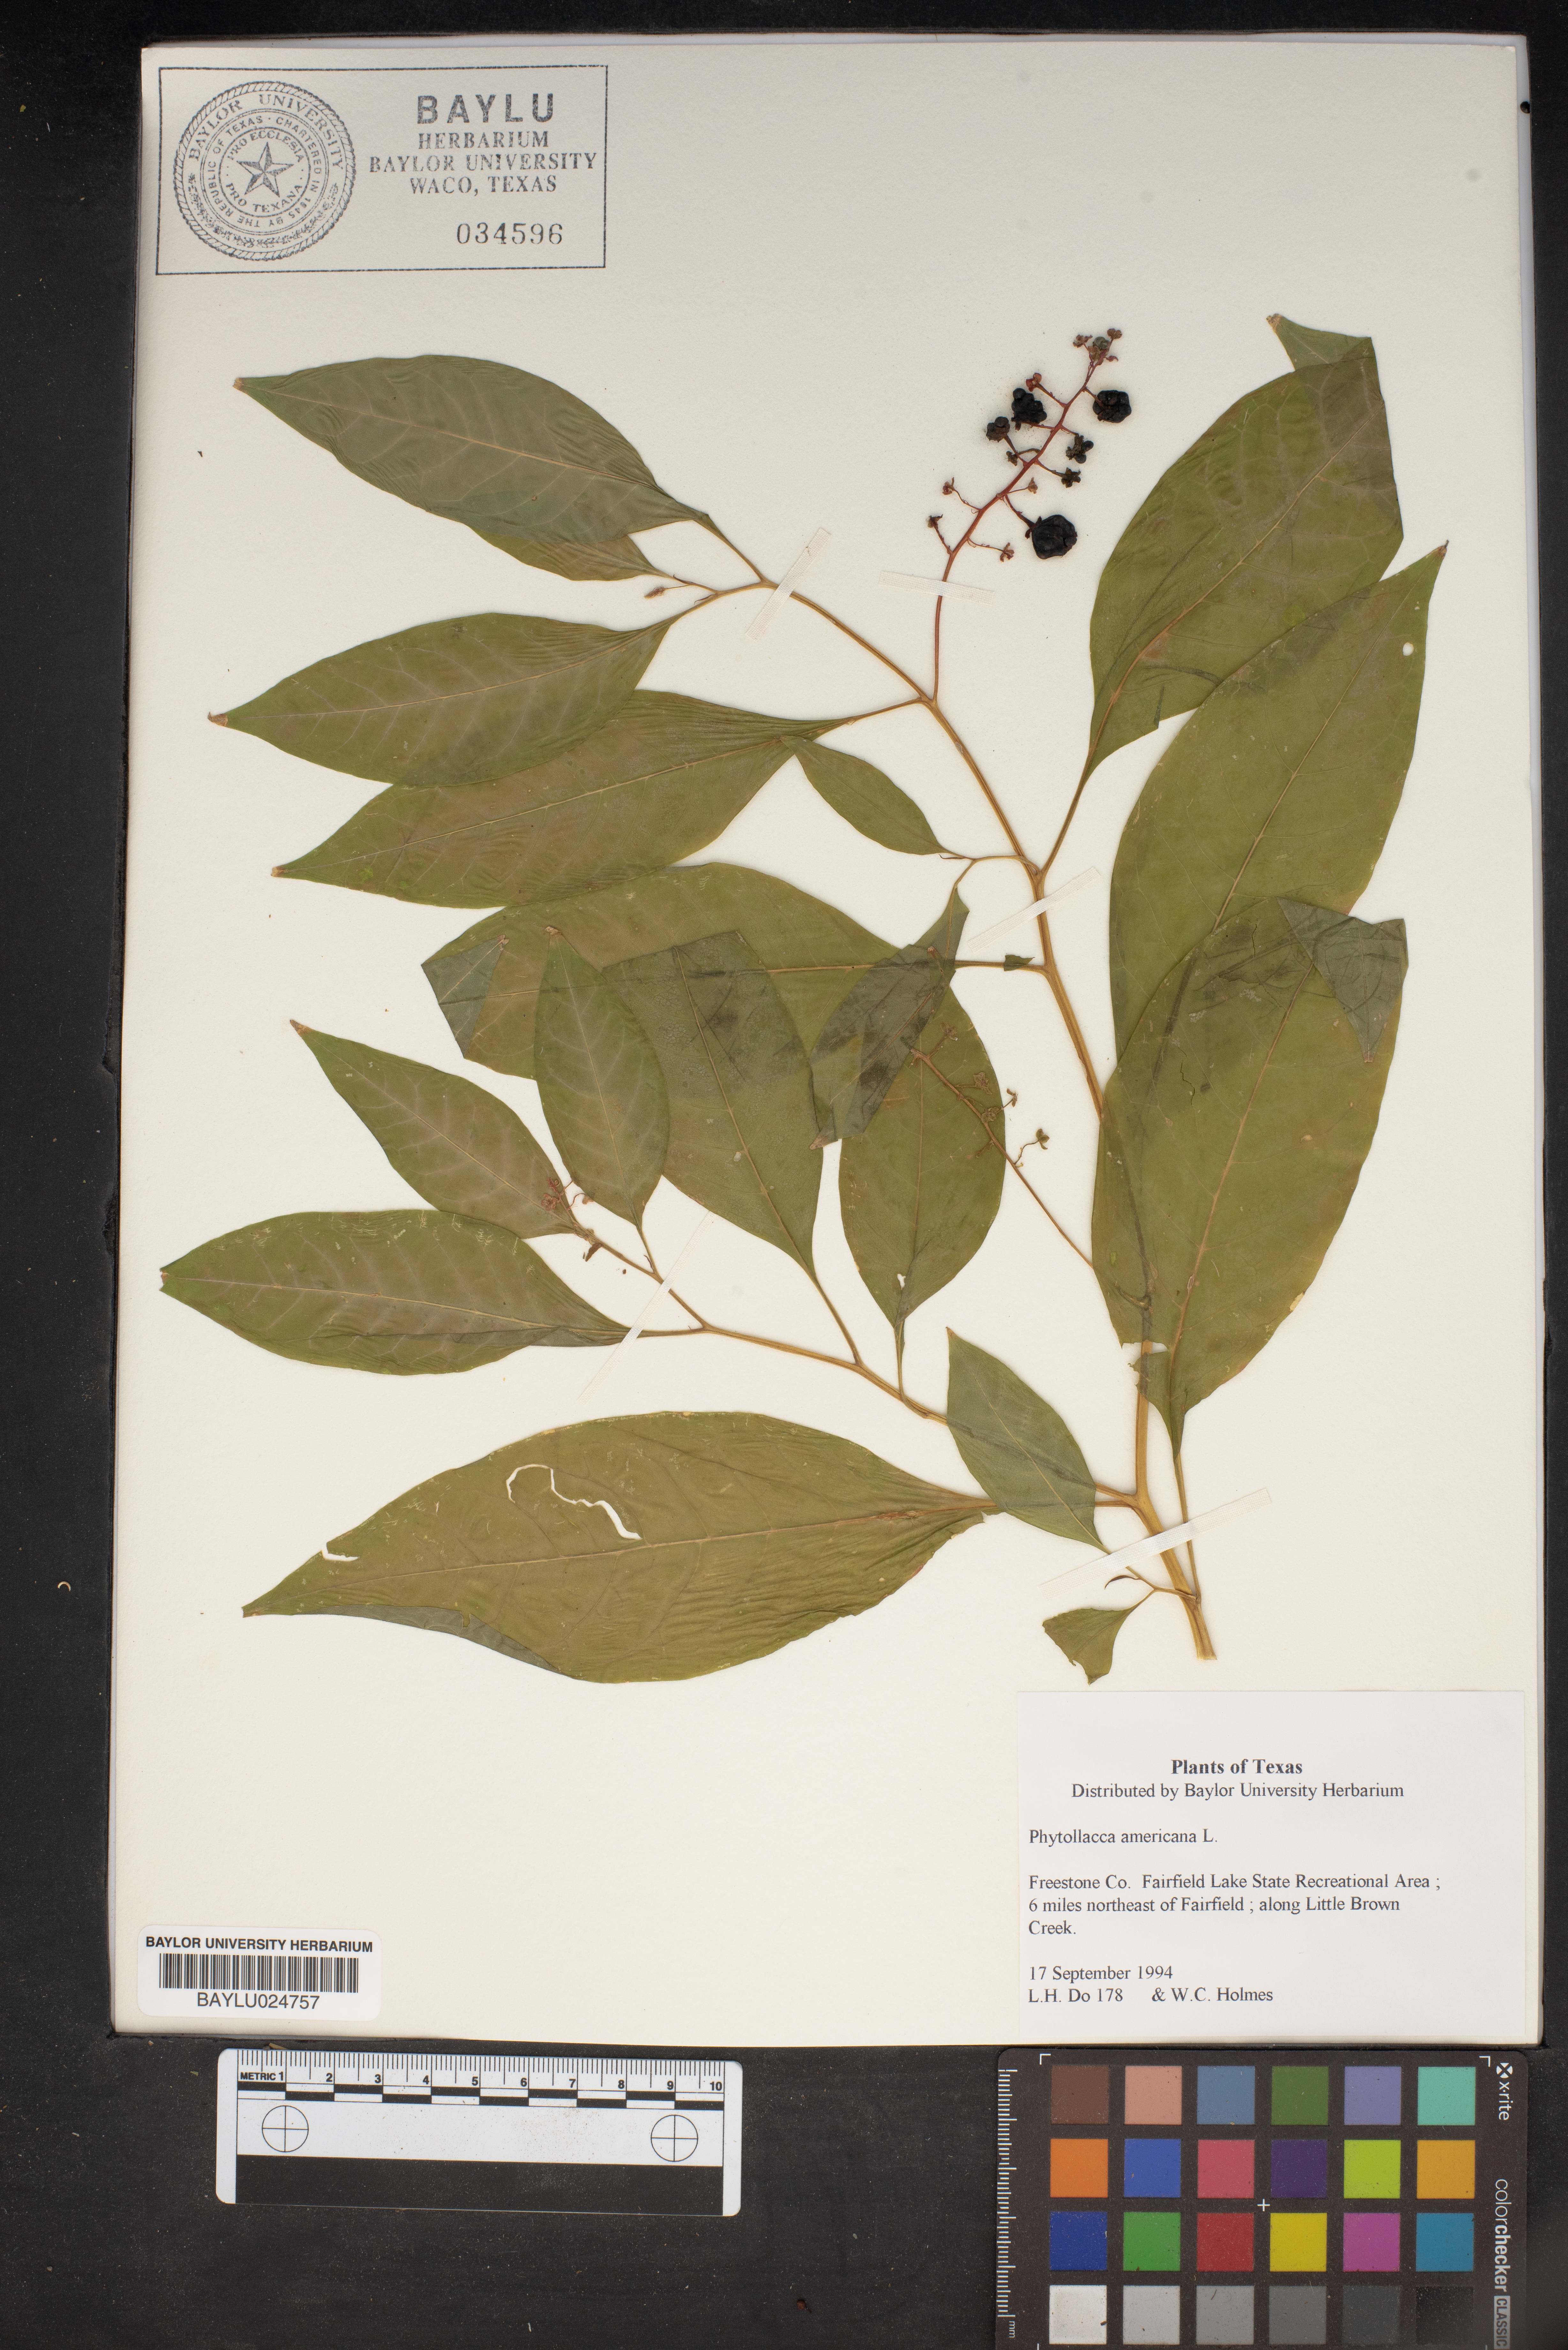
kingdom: Plantae
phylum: Tracheophyta
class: Magnoliopsida
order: Caryophyllales
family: Phytolaccaceae
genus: Phytolacca
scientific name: Phytolacca americana
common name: American pokeweed
